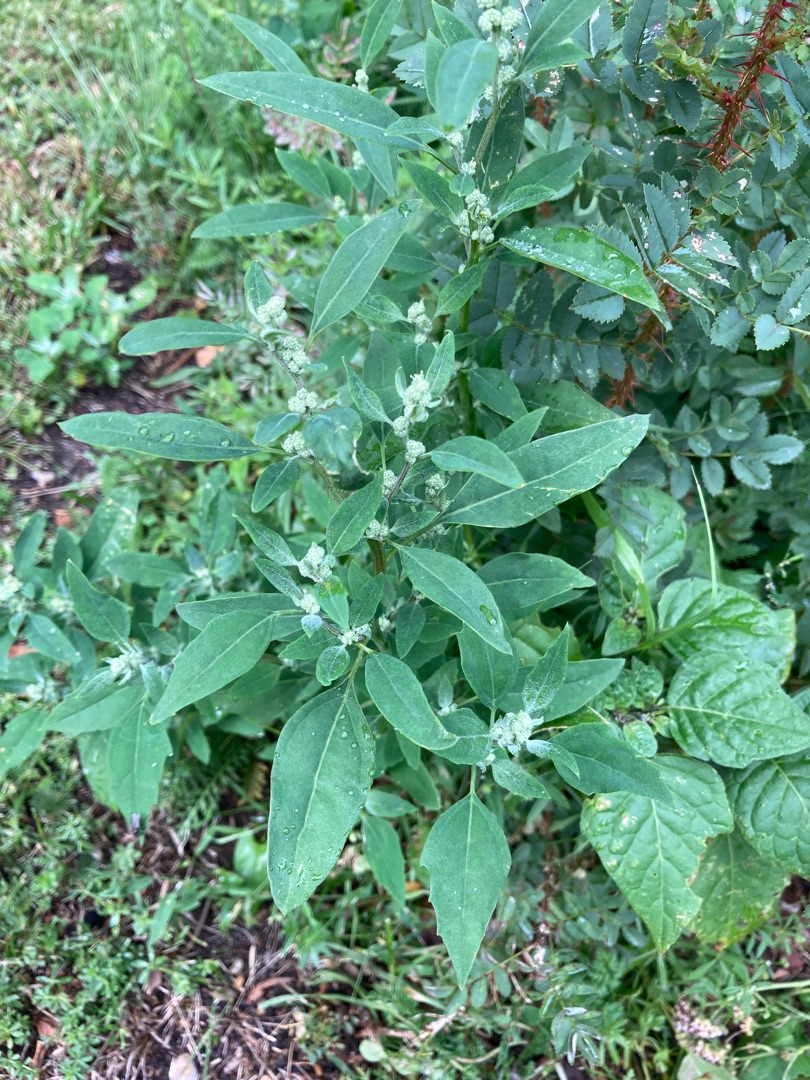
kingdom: Plantae
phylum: Tracheophyta
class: Magnoliopsida
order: Caryophyllales
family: Amaranthaceae
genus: Chenopodium
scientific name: Chenopodium album
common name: Hvidmelet gåsefod
